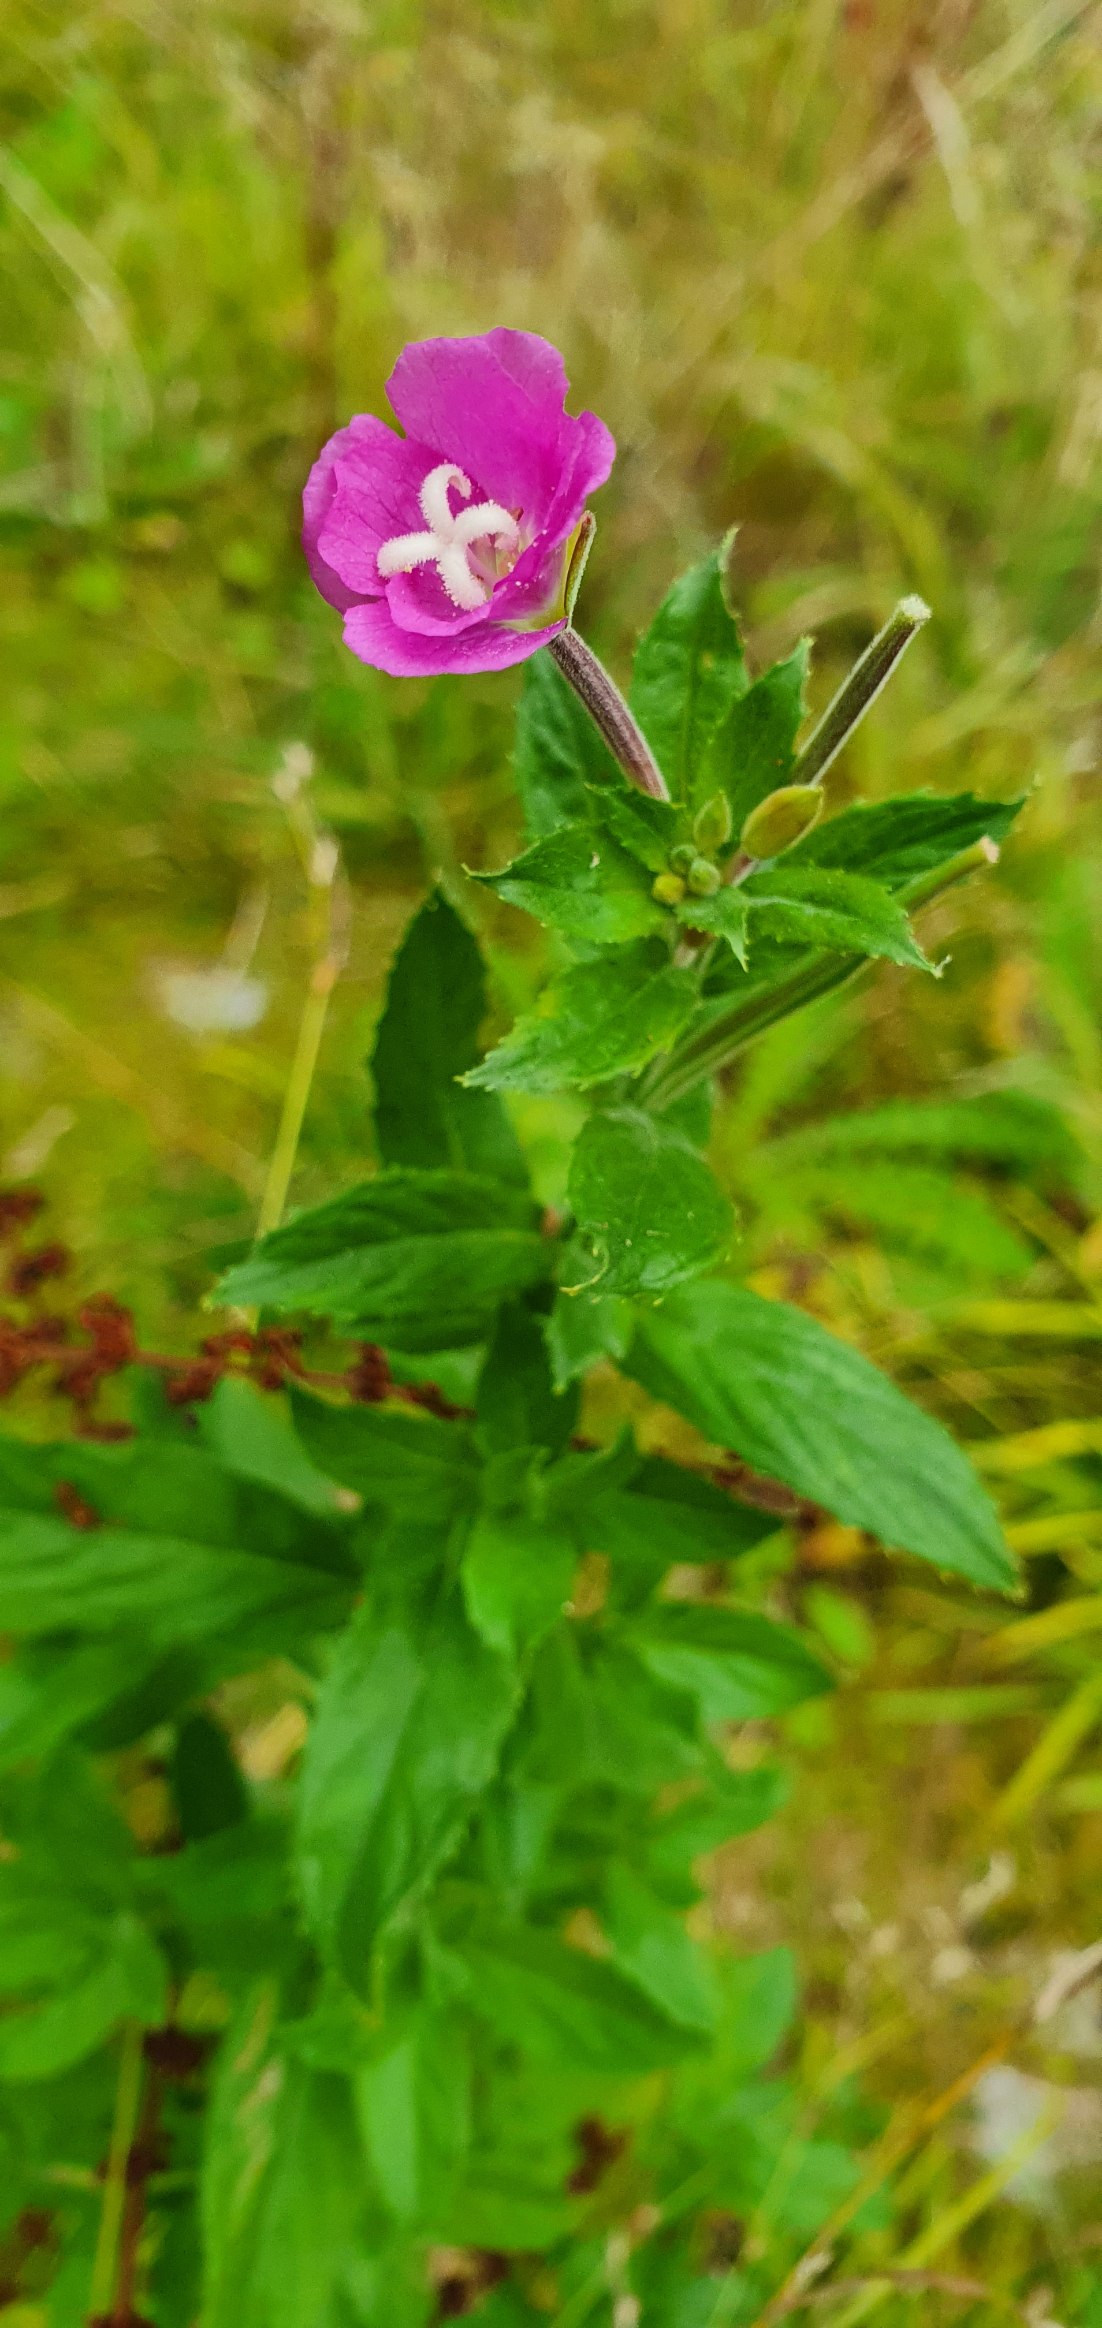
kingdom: Plantae
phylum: Tracheophyta
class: Magnoliopsida
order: Myrtales
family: Onagraceae
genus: Epilobium
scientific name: Epilobium hirsutum
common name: Lådden dueurt
